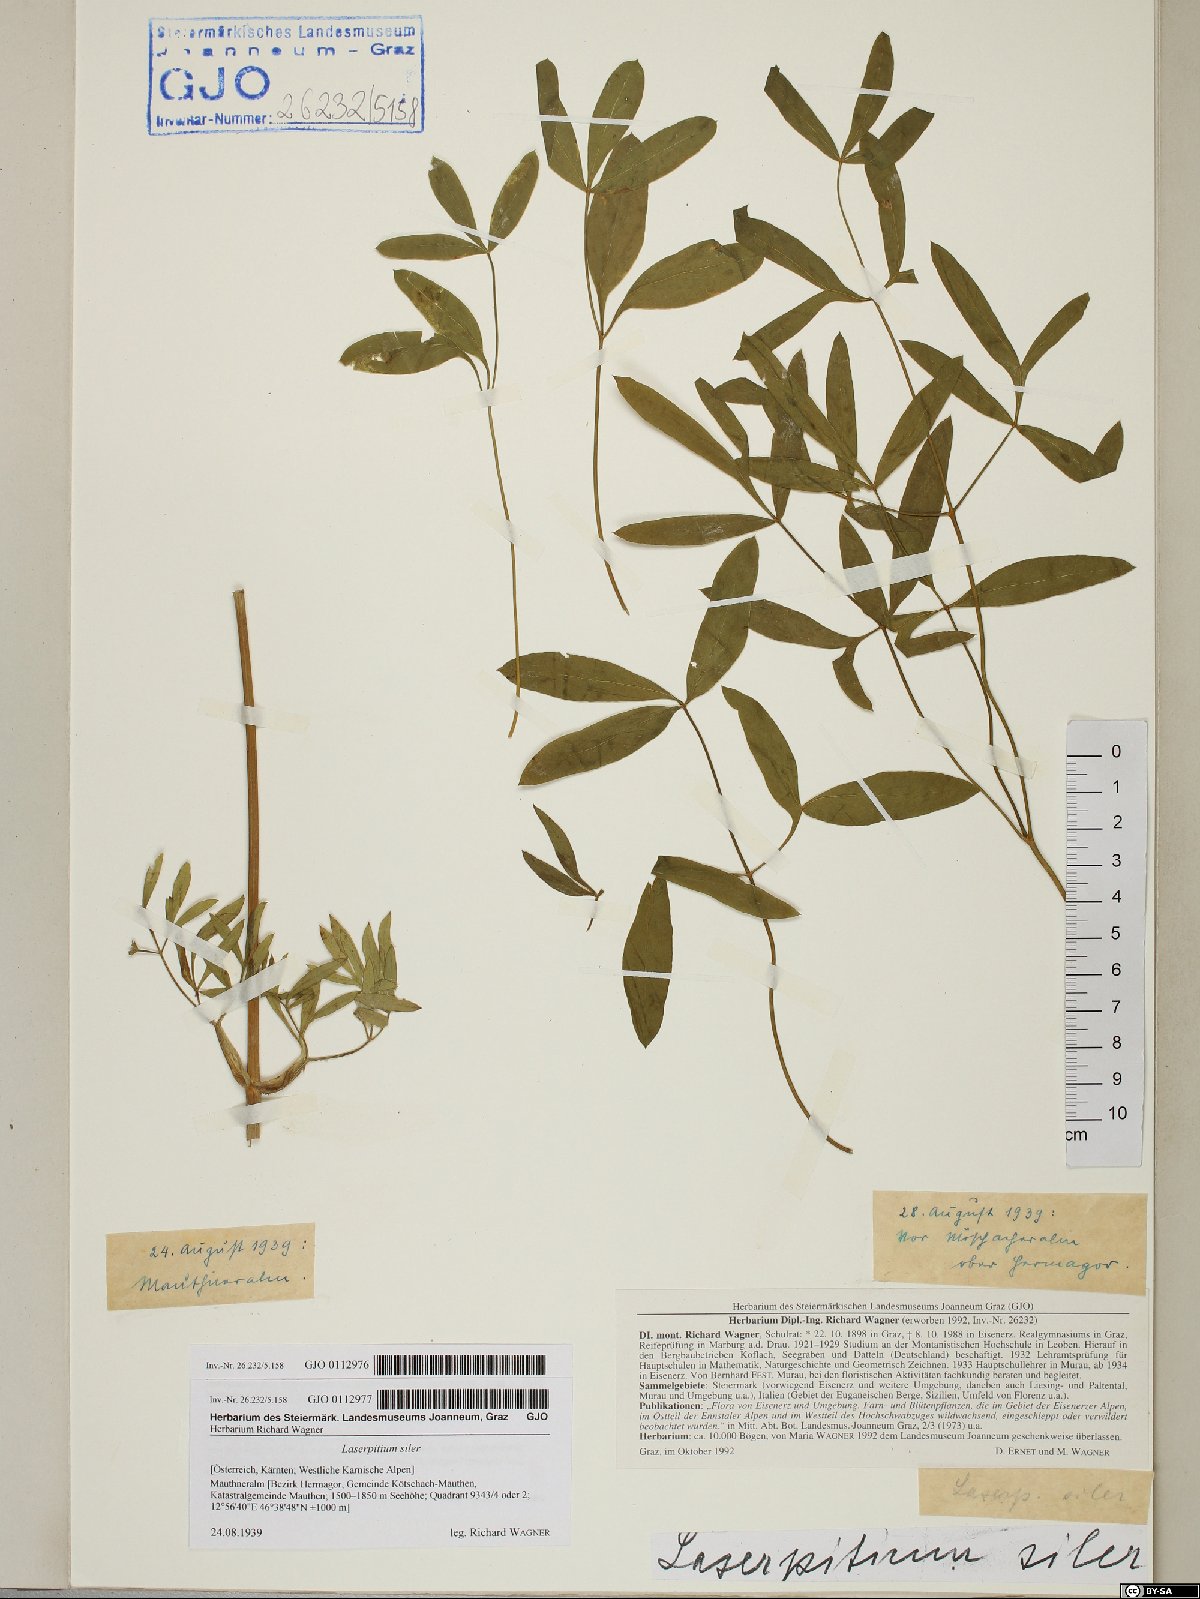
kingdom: Plantae
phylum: Tracheophyta
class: Magnoliopsida
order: Apiales
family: Apiaceae
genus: Siler
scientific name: Siler montanum
